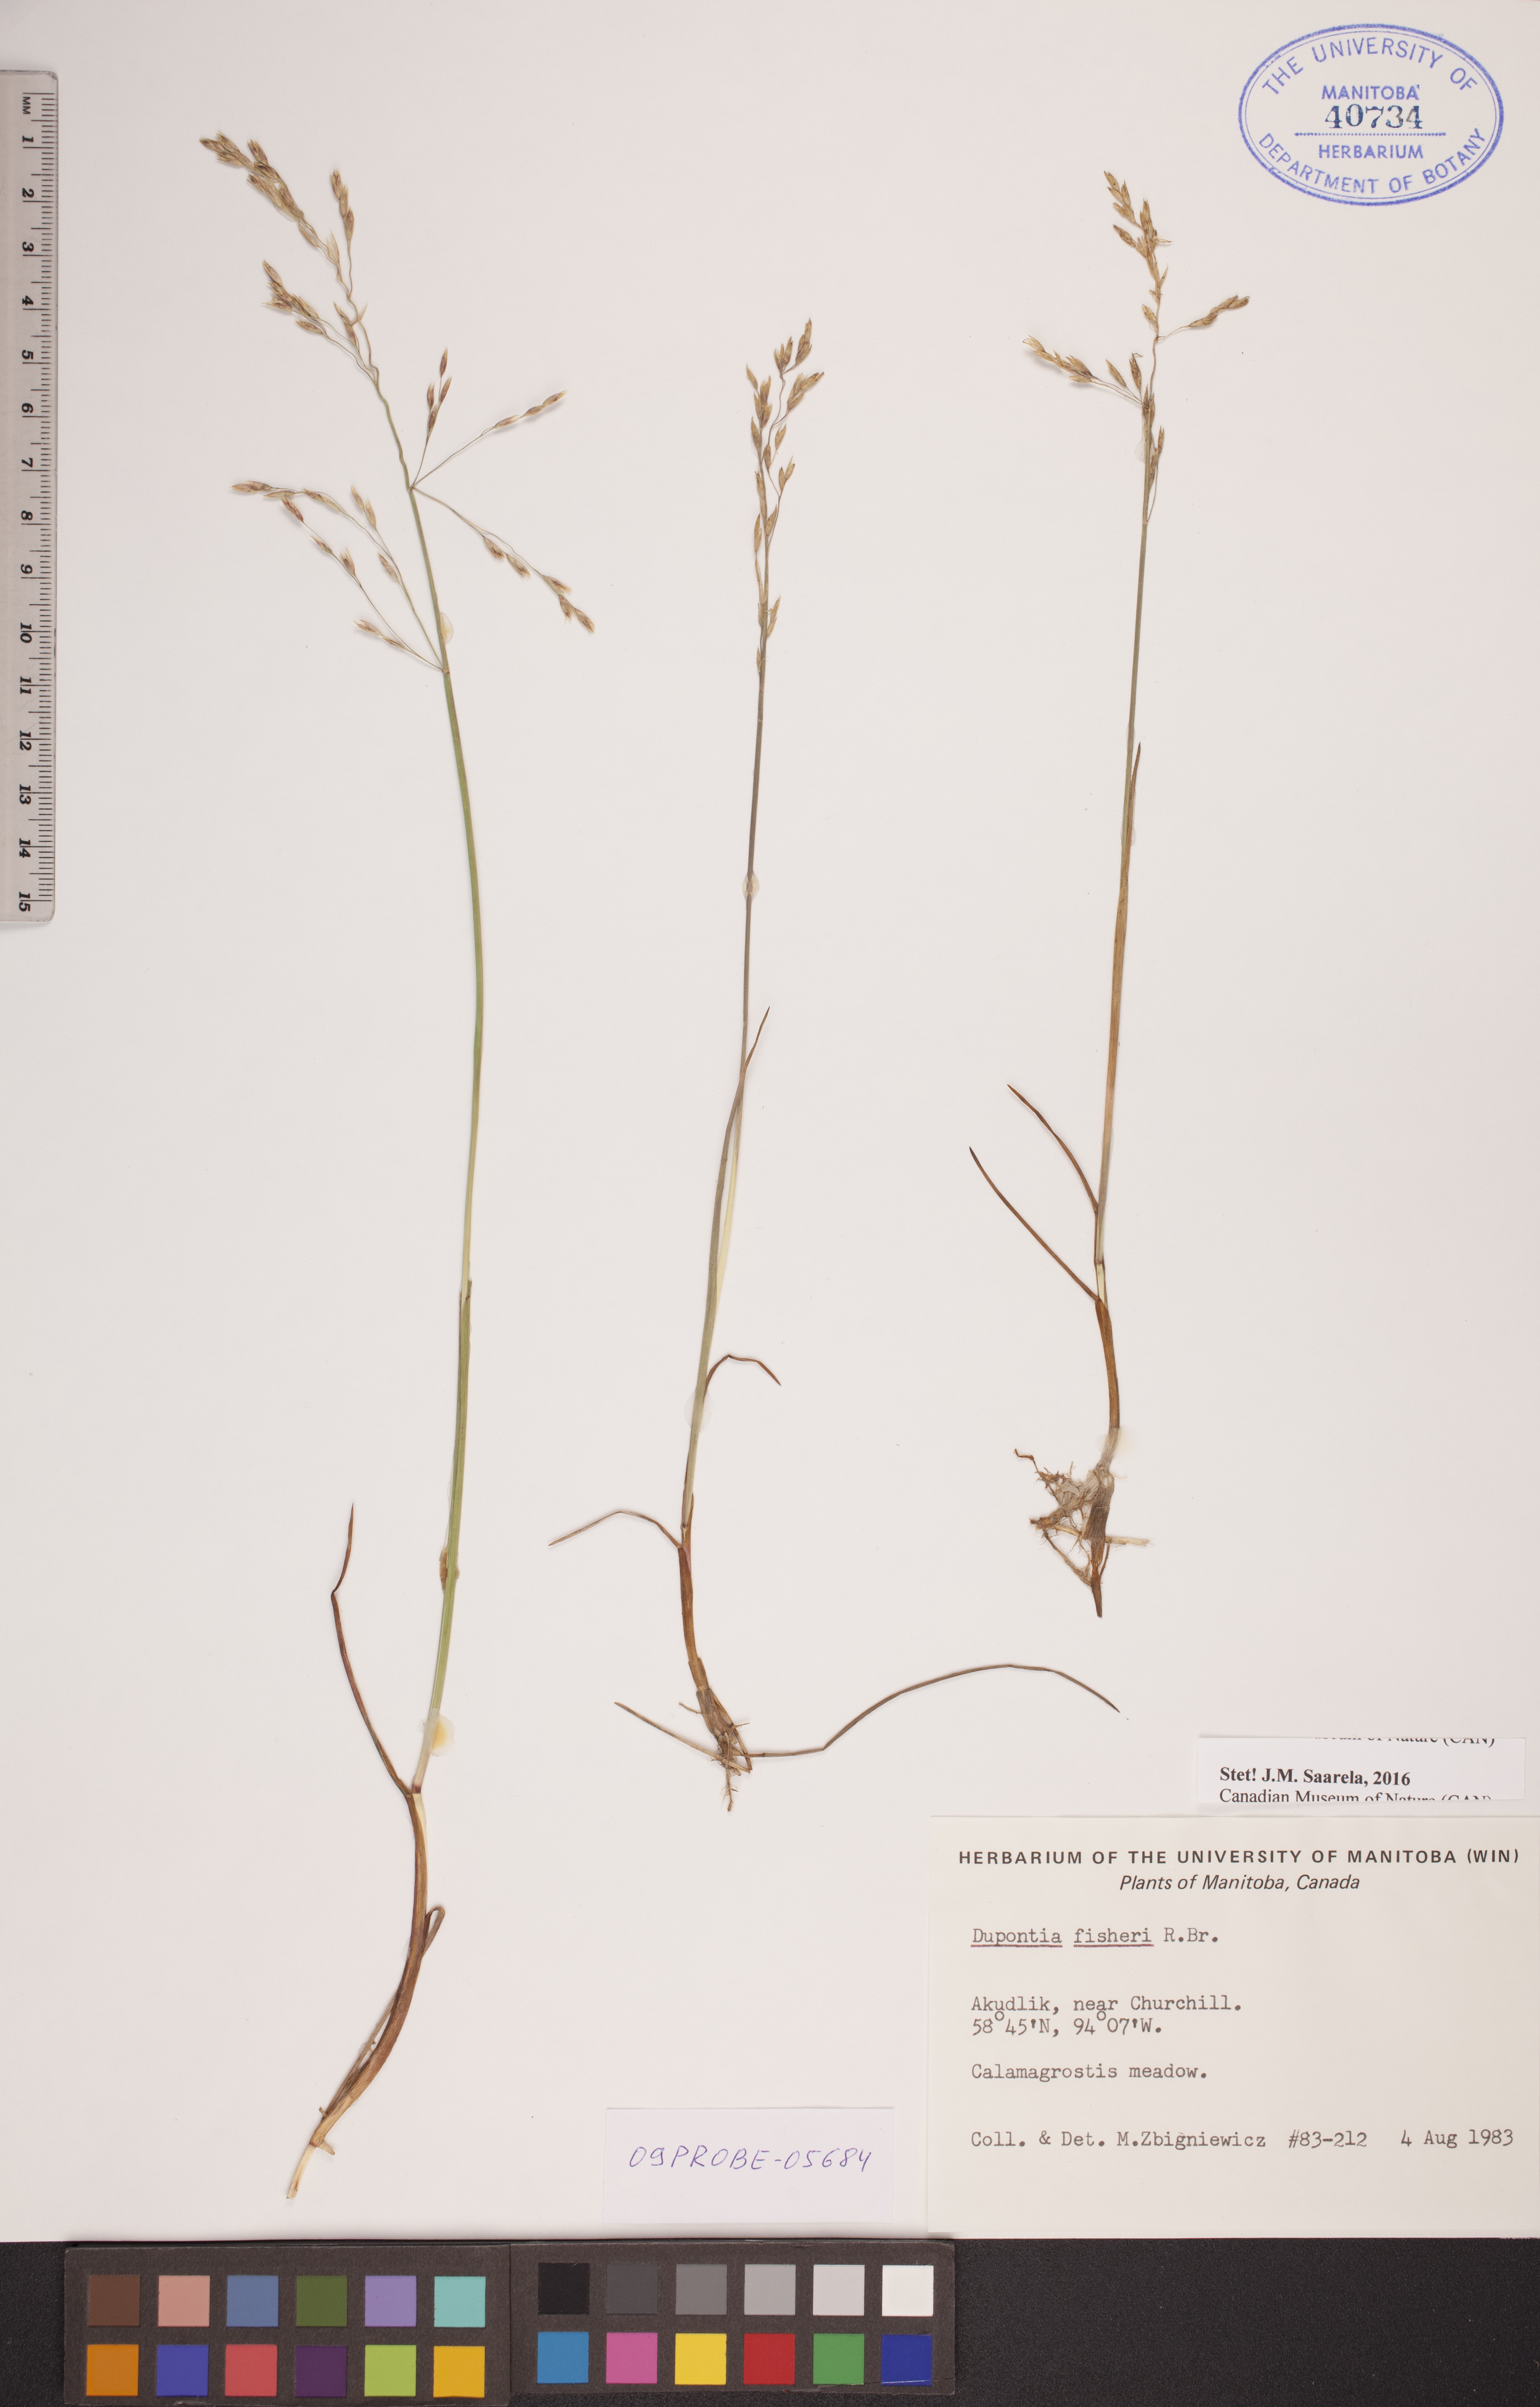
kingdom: Plantae
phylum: Tracheophyta
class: Liliopsida
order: Poales
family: Poaceae
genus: Dupontia
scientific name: Dupontia fisheri
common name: Tundra grass
